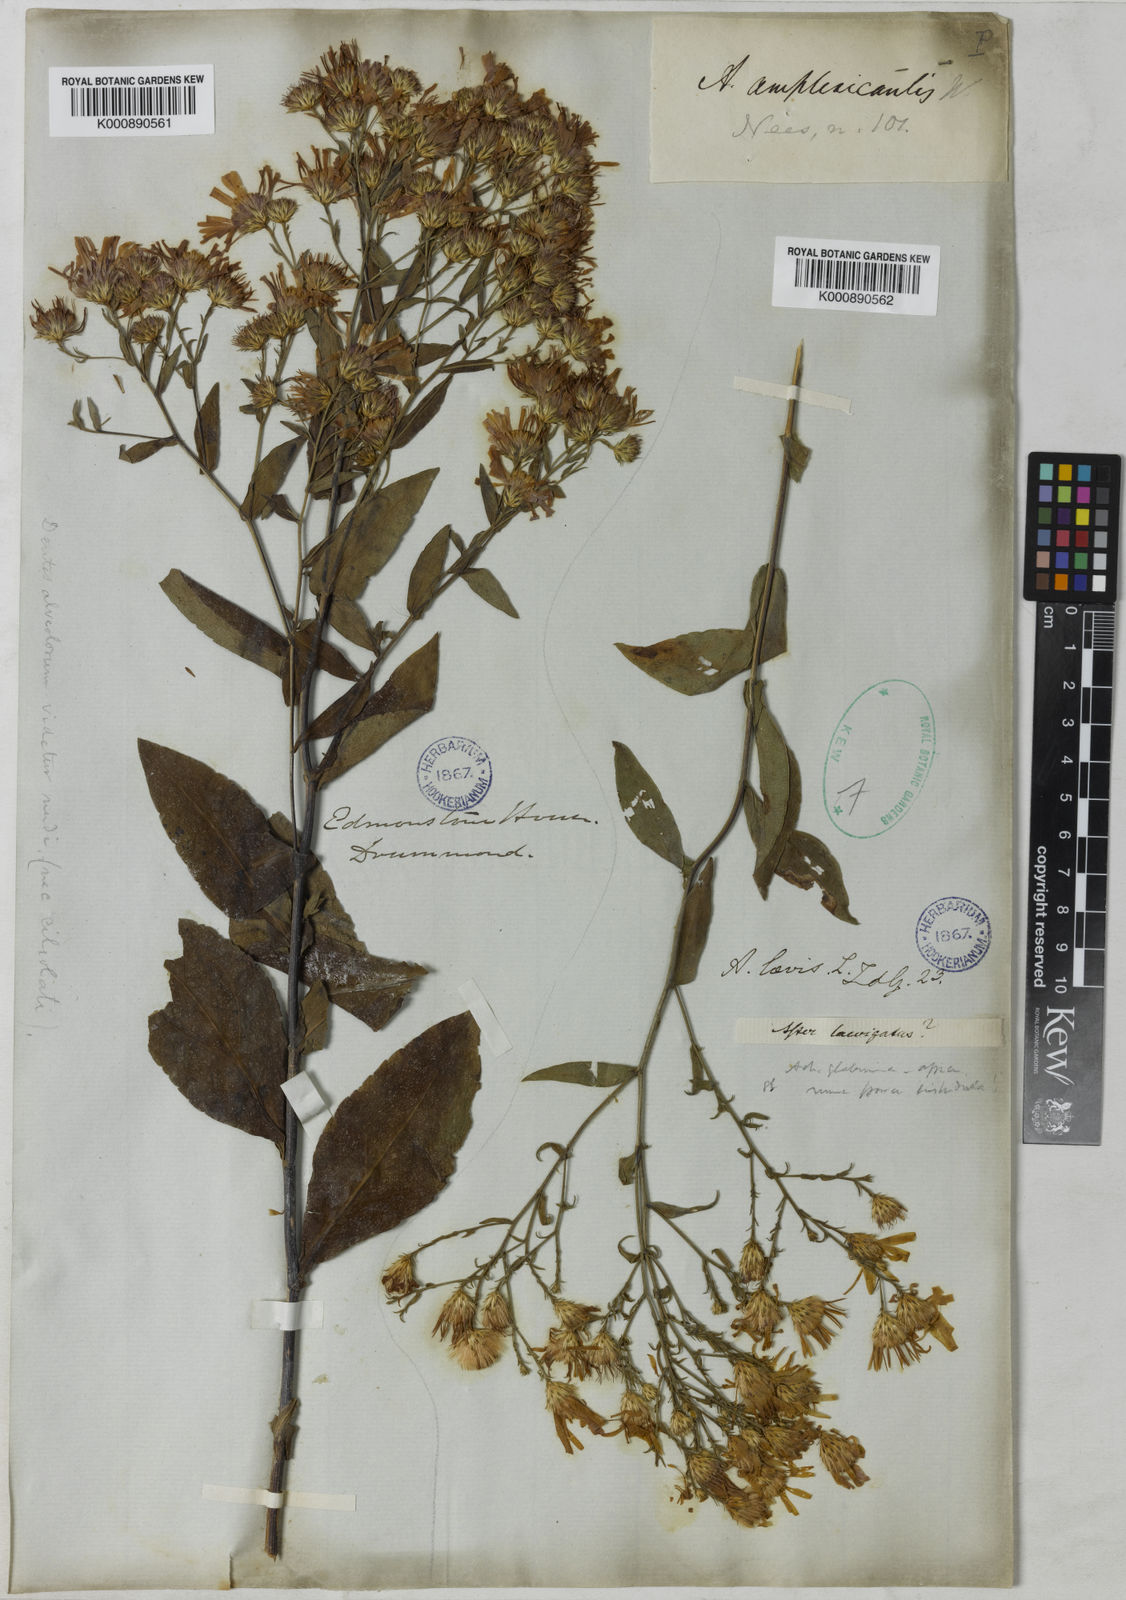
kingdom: Plantae
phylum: Tracheophyta
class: Magnoliopsida
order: Asterales
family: Asteraceae
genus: Symphyotrichum
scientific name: Symphyotrichum laeve
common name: Glaucous aster
